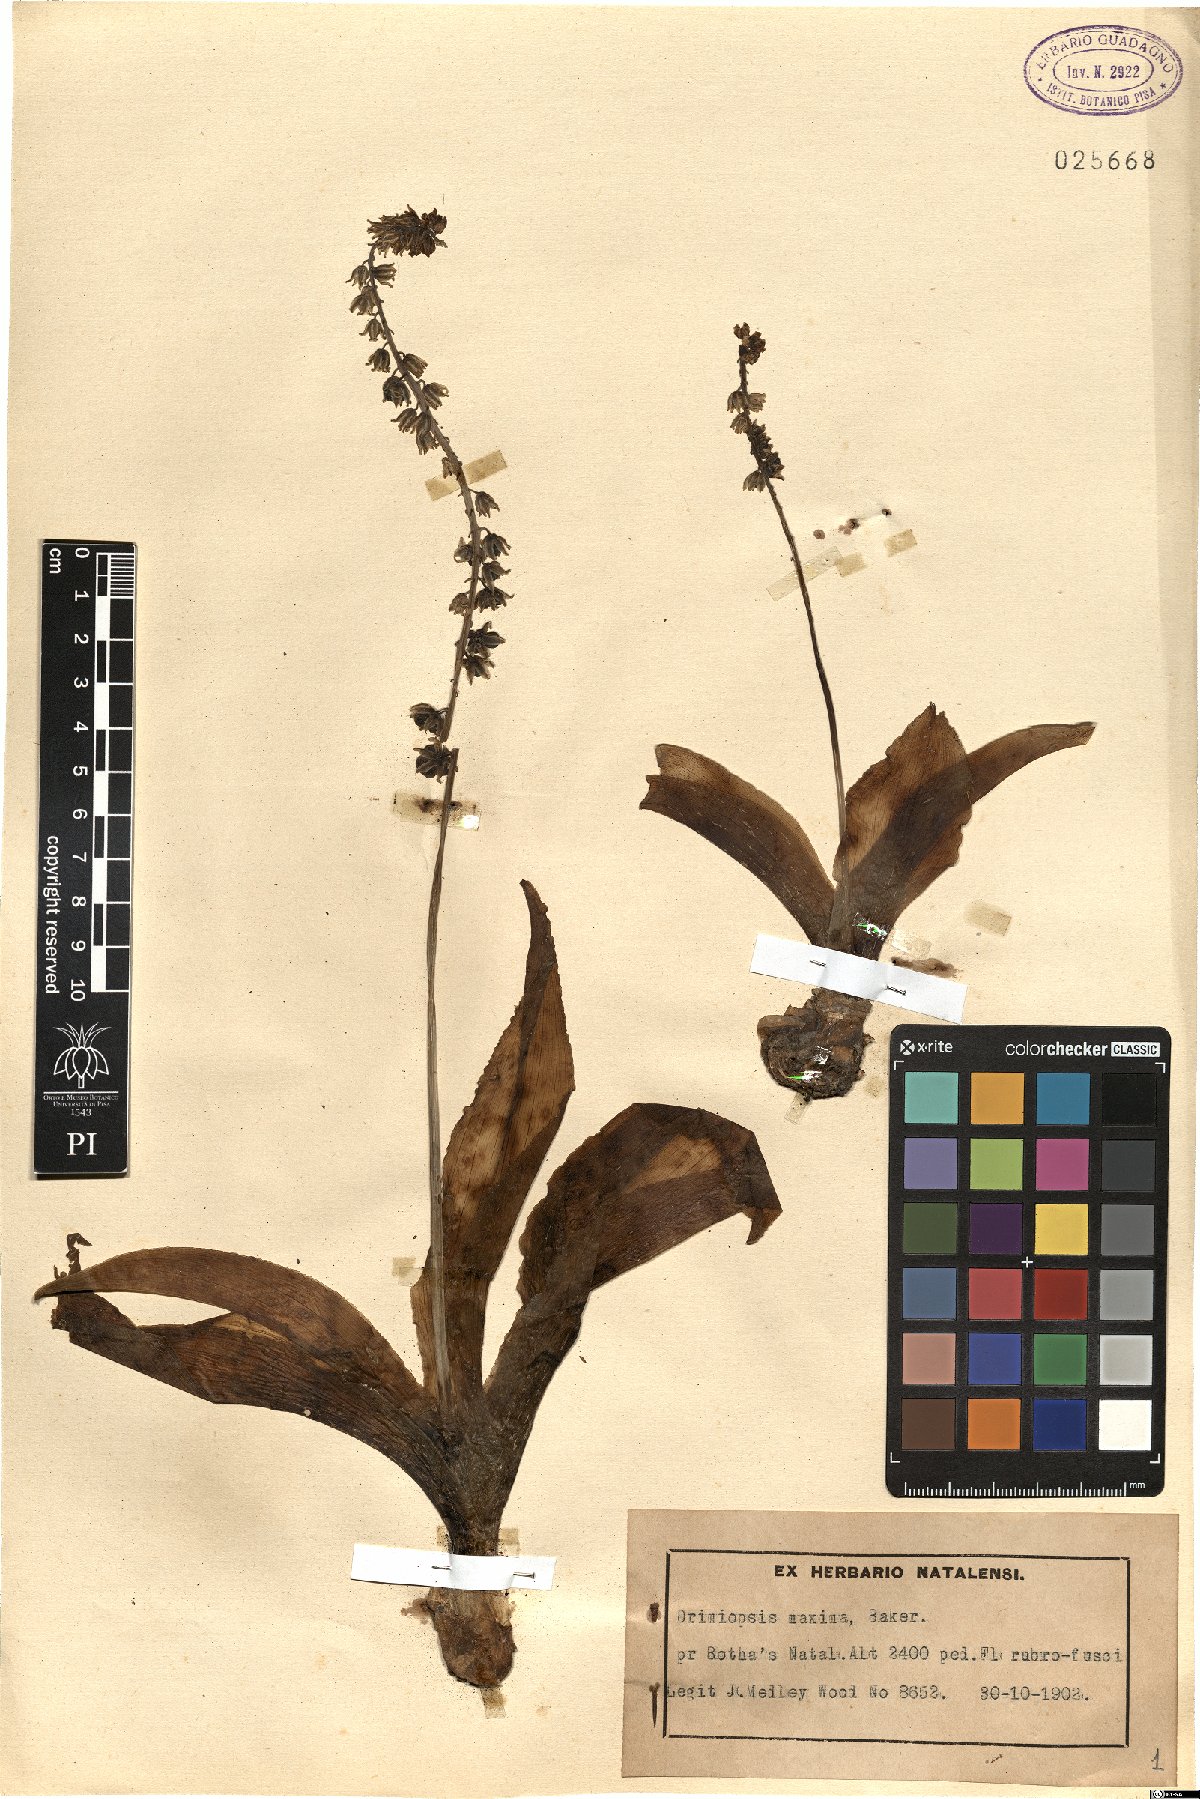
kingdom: Plantae
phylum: Tracheophyta
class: Liliopsida
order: Asparagales
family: Asparagaceae
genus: Resnova
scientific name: Resnova humifusa
